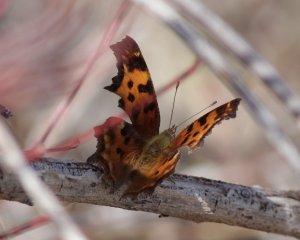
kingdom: Animalia
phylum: Arthropoda
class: Insecta
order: Lepidoptera
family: Nymphalidae
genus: Polygonia
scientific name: Polygonia
